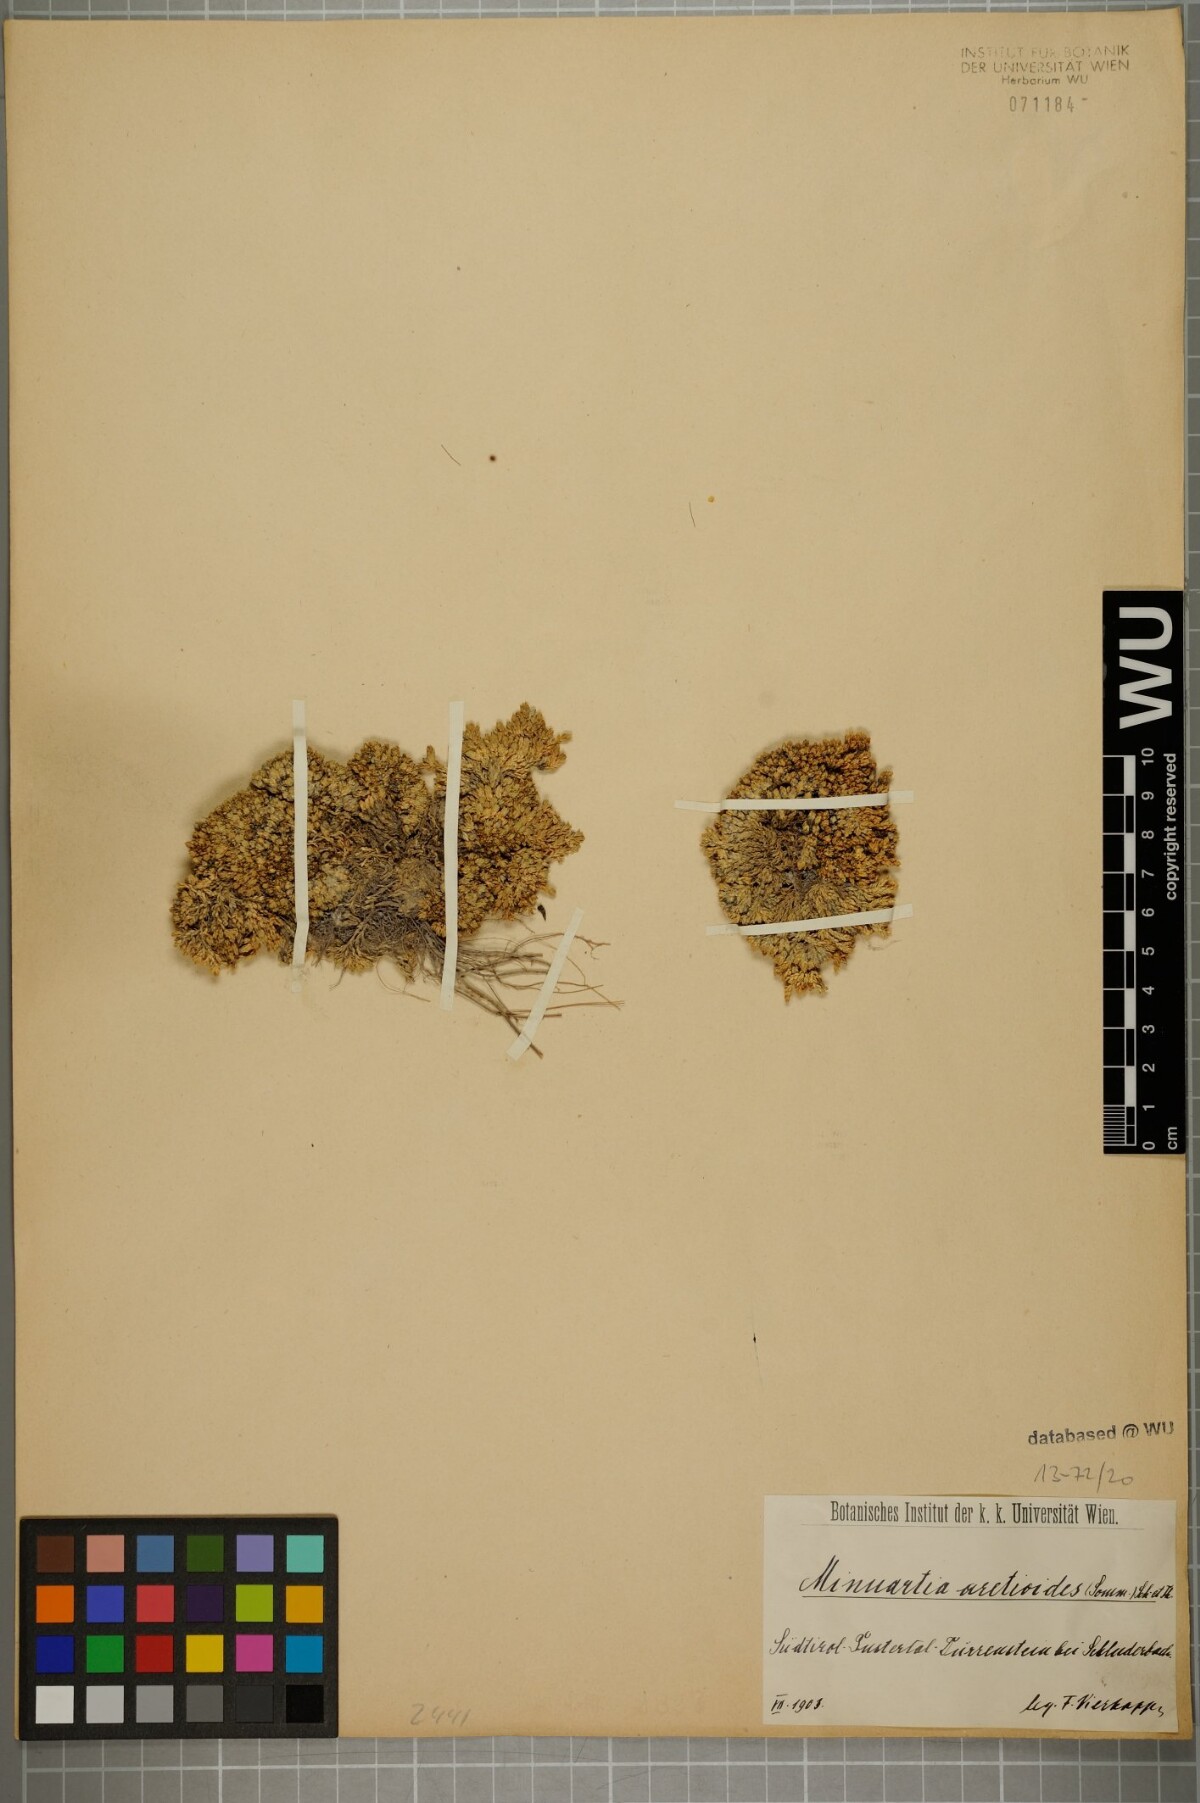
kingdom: Plantae
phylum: Tracheophyta
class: Magnoliopsida
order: Caryophyllales
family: Caryophyllaceae
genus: Facchinia
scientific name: Facchinia cherlerioides
